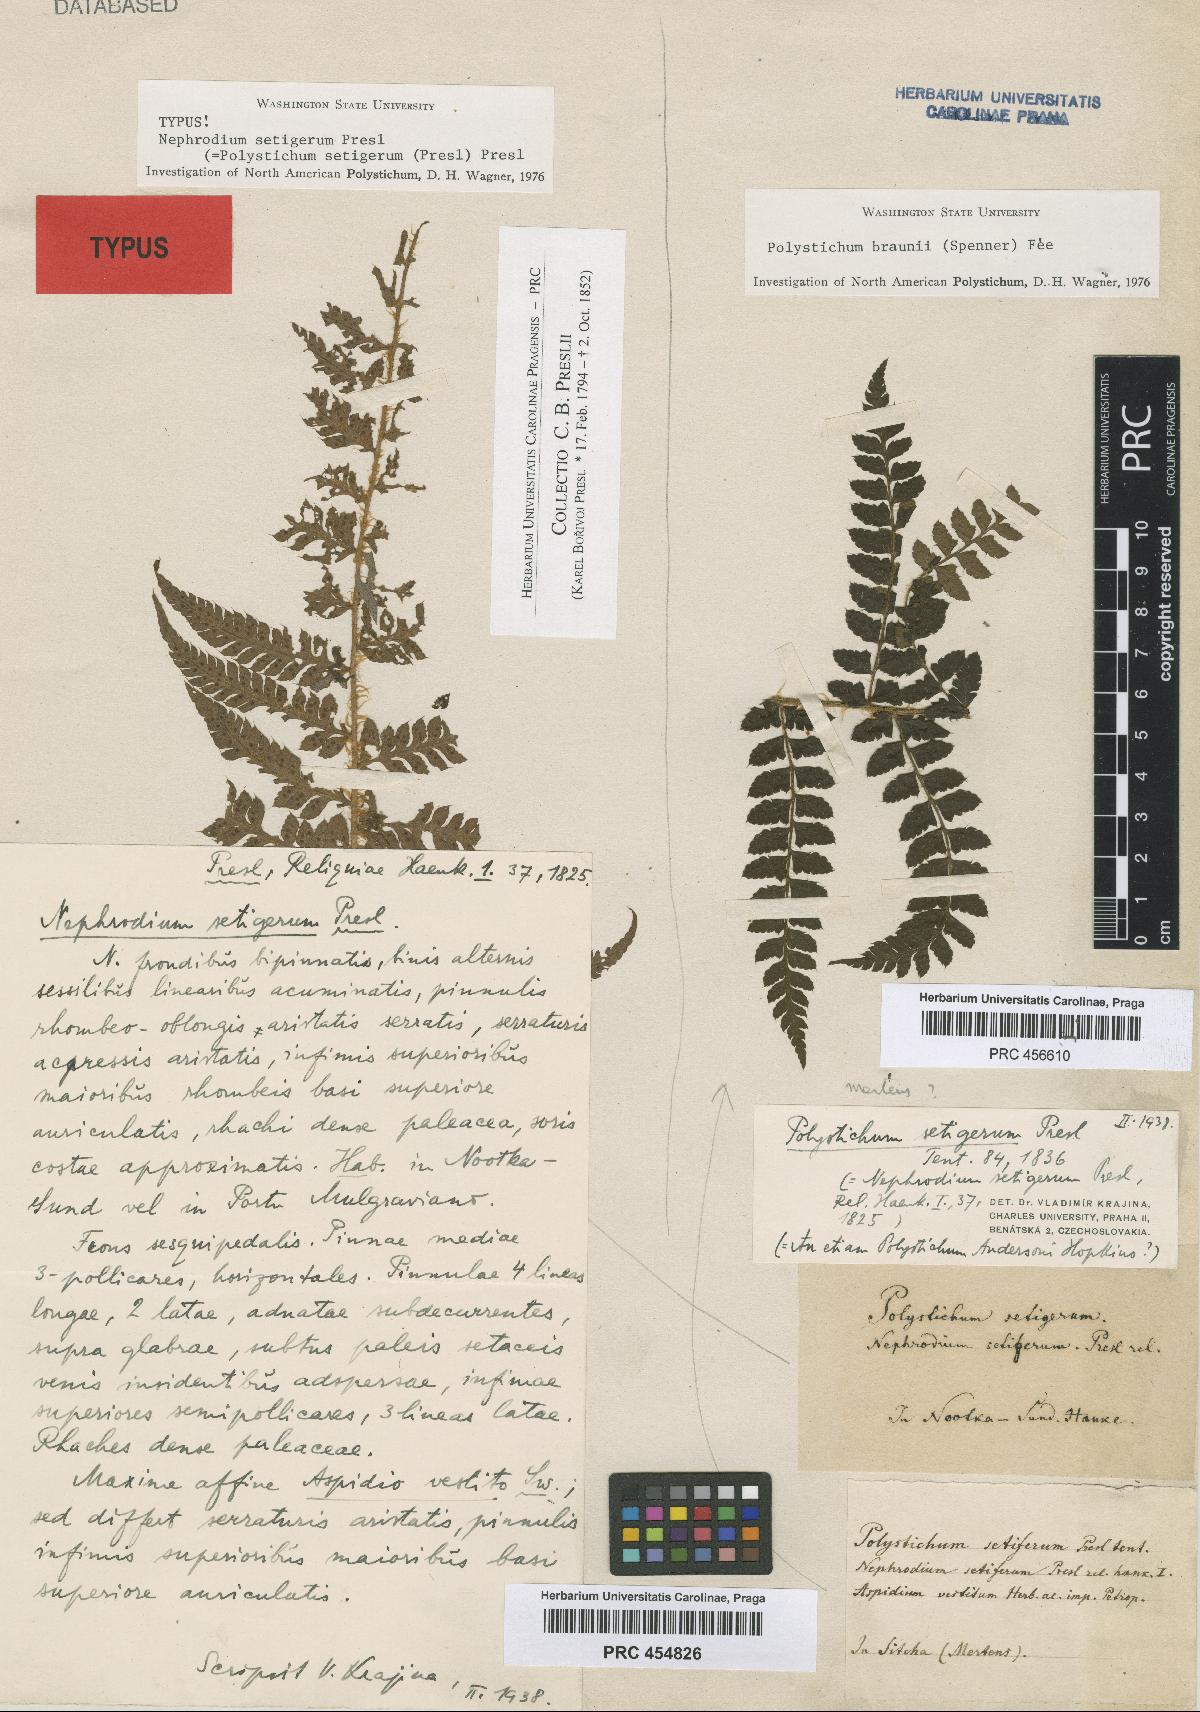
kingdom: Plantae
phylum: Tracheophyta
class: Polypodiopsida
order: Polypodiales
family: Dryopteridaceae
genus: Polystichum
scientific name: Polystichum setigerum
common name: Alaska holly fern
